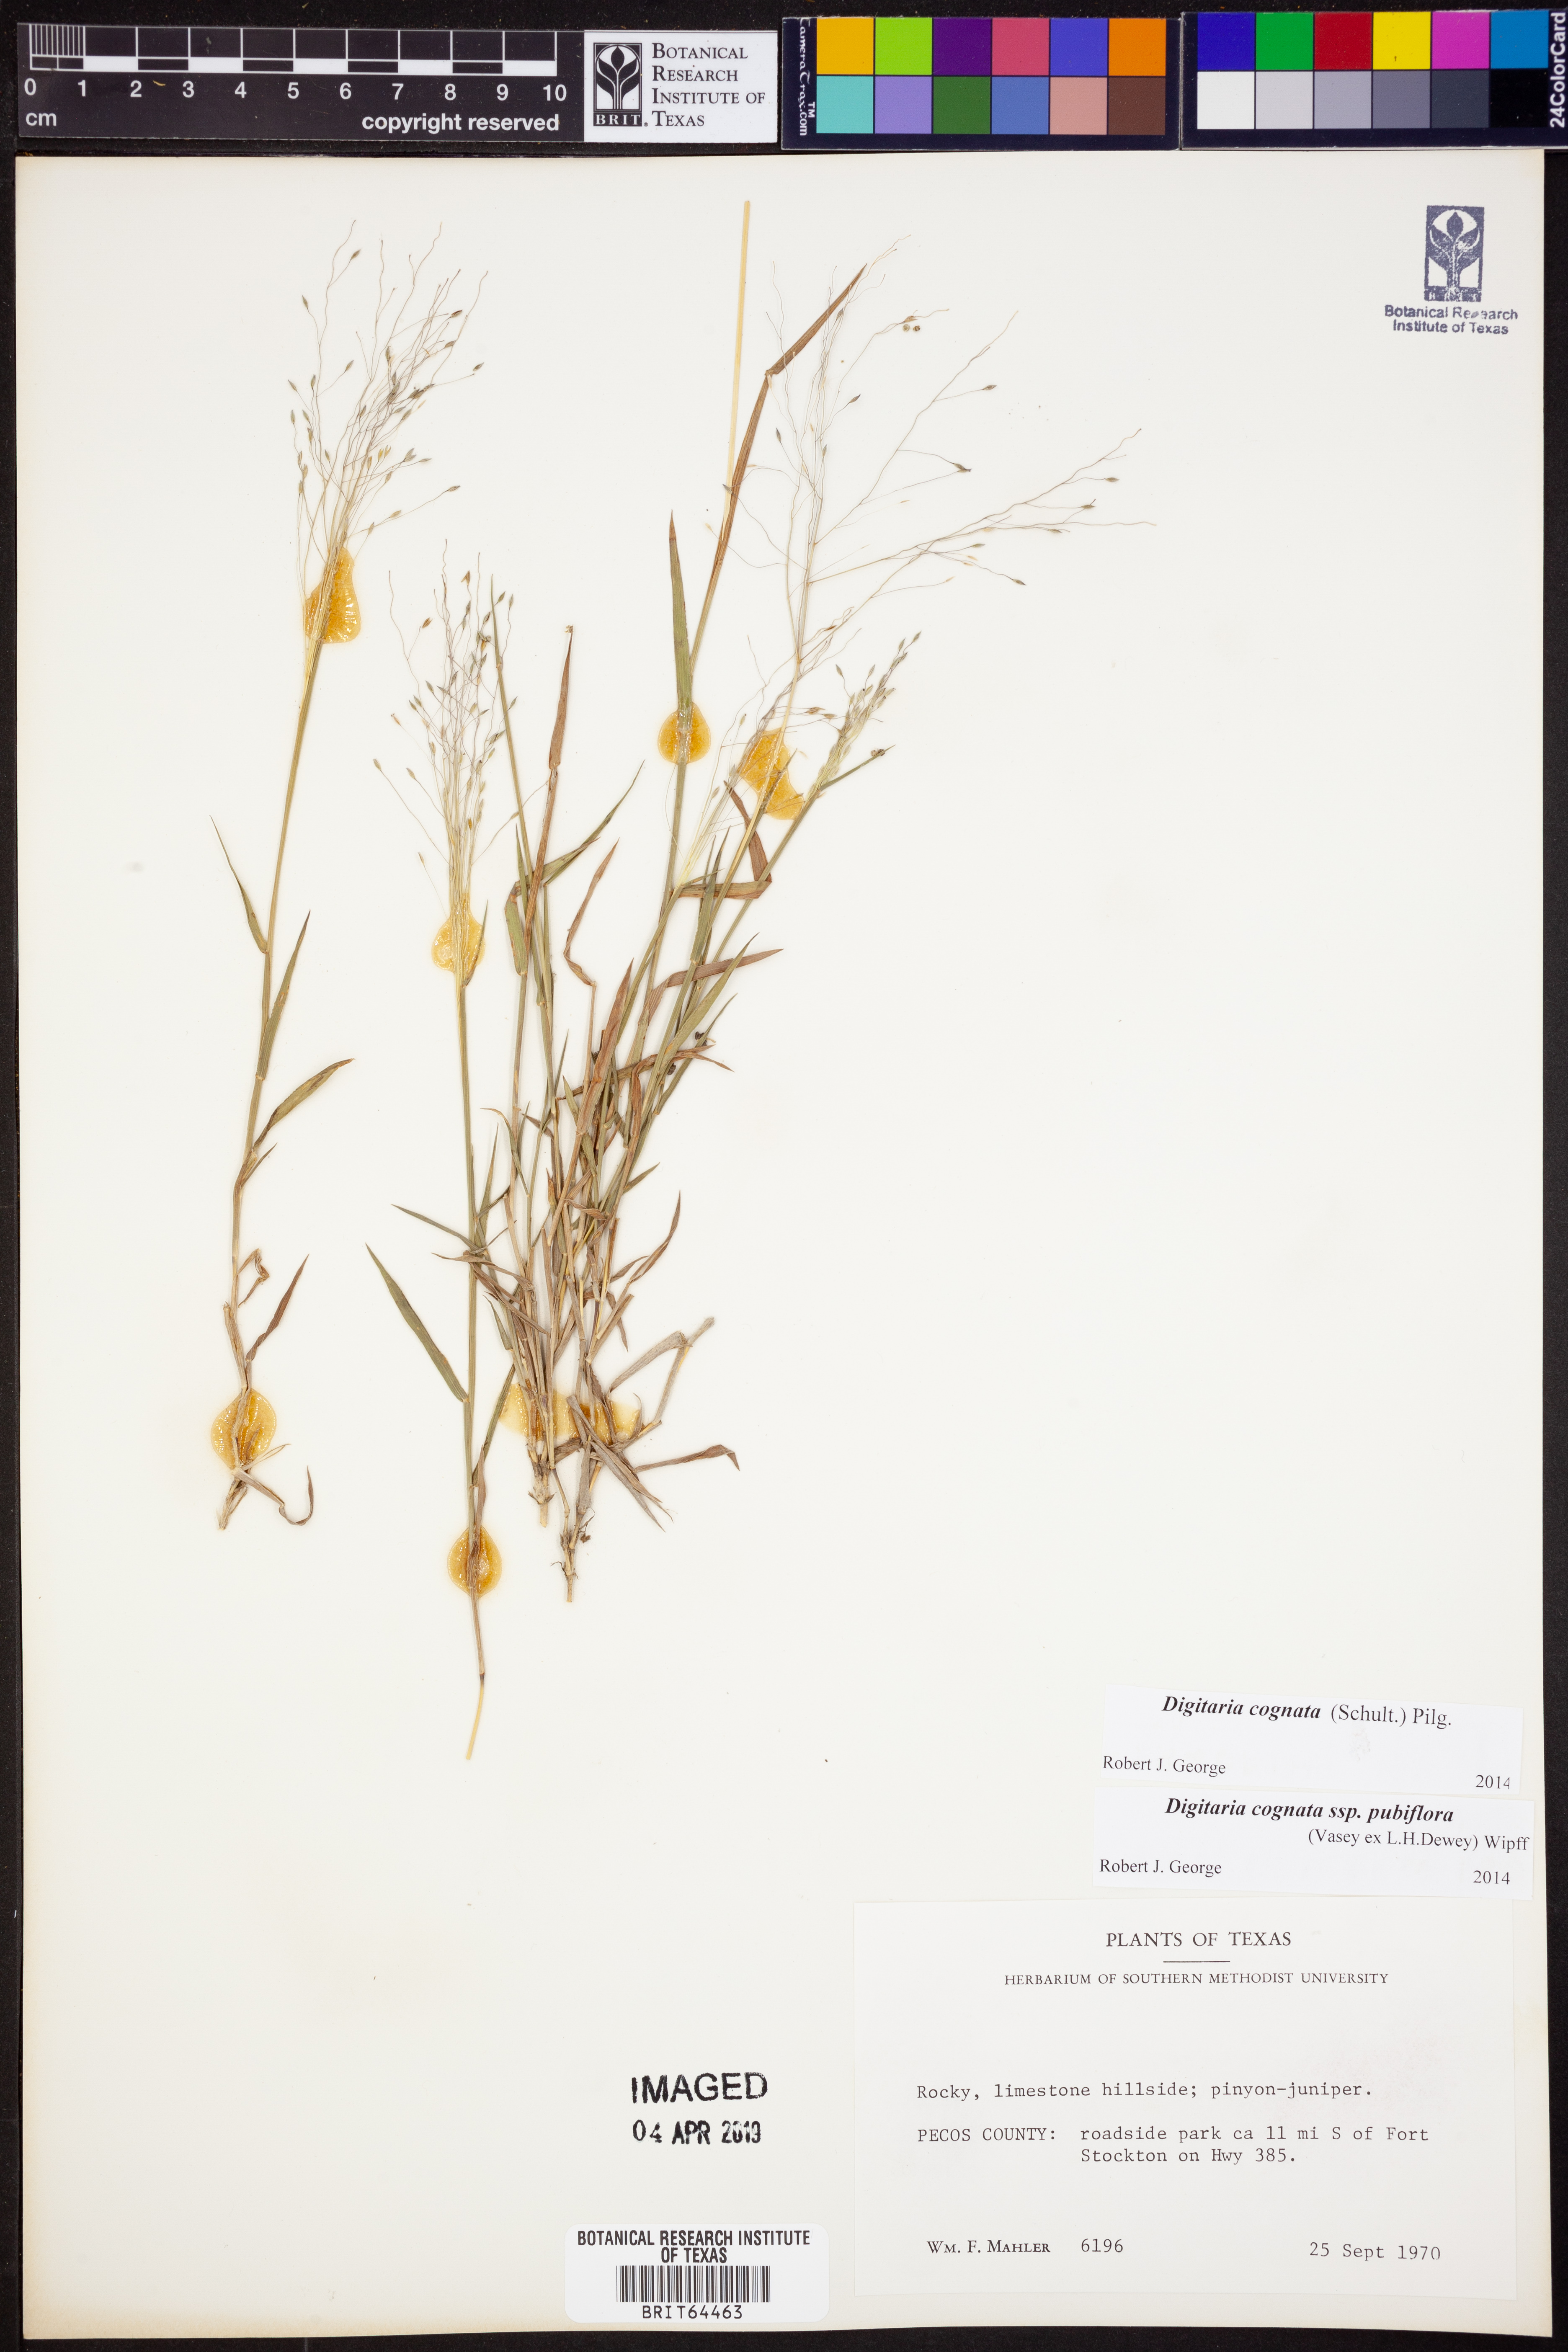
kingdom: Plantae
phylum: Tracheophyta
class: Liliopsida
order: Poales
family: Poaceae
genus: Digitaria
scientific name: Digitaria cognata
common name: Fall witchgrass
